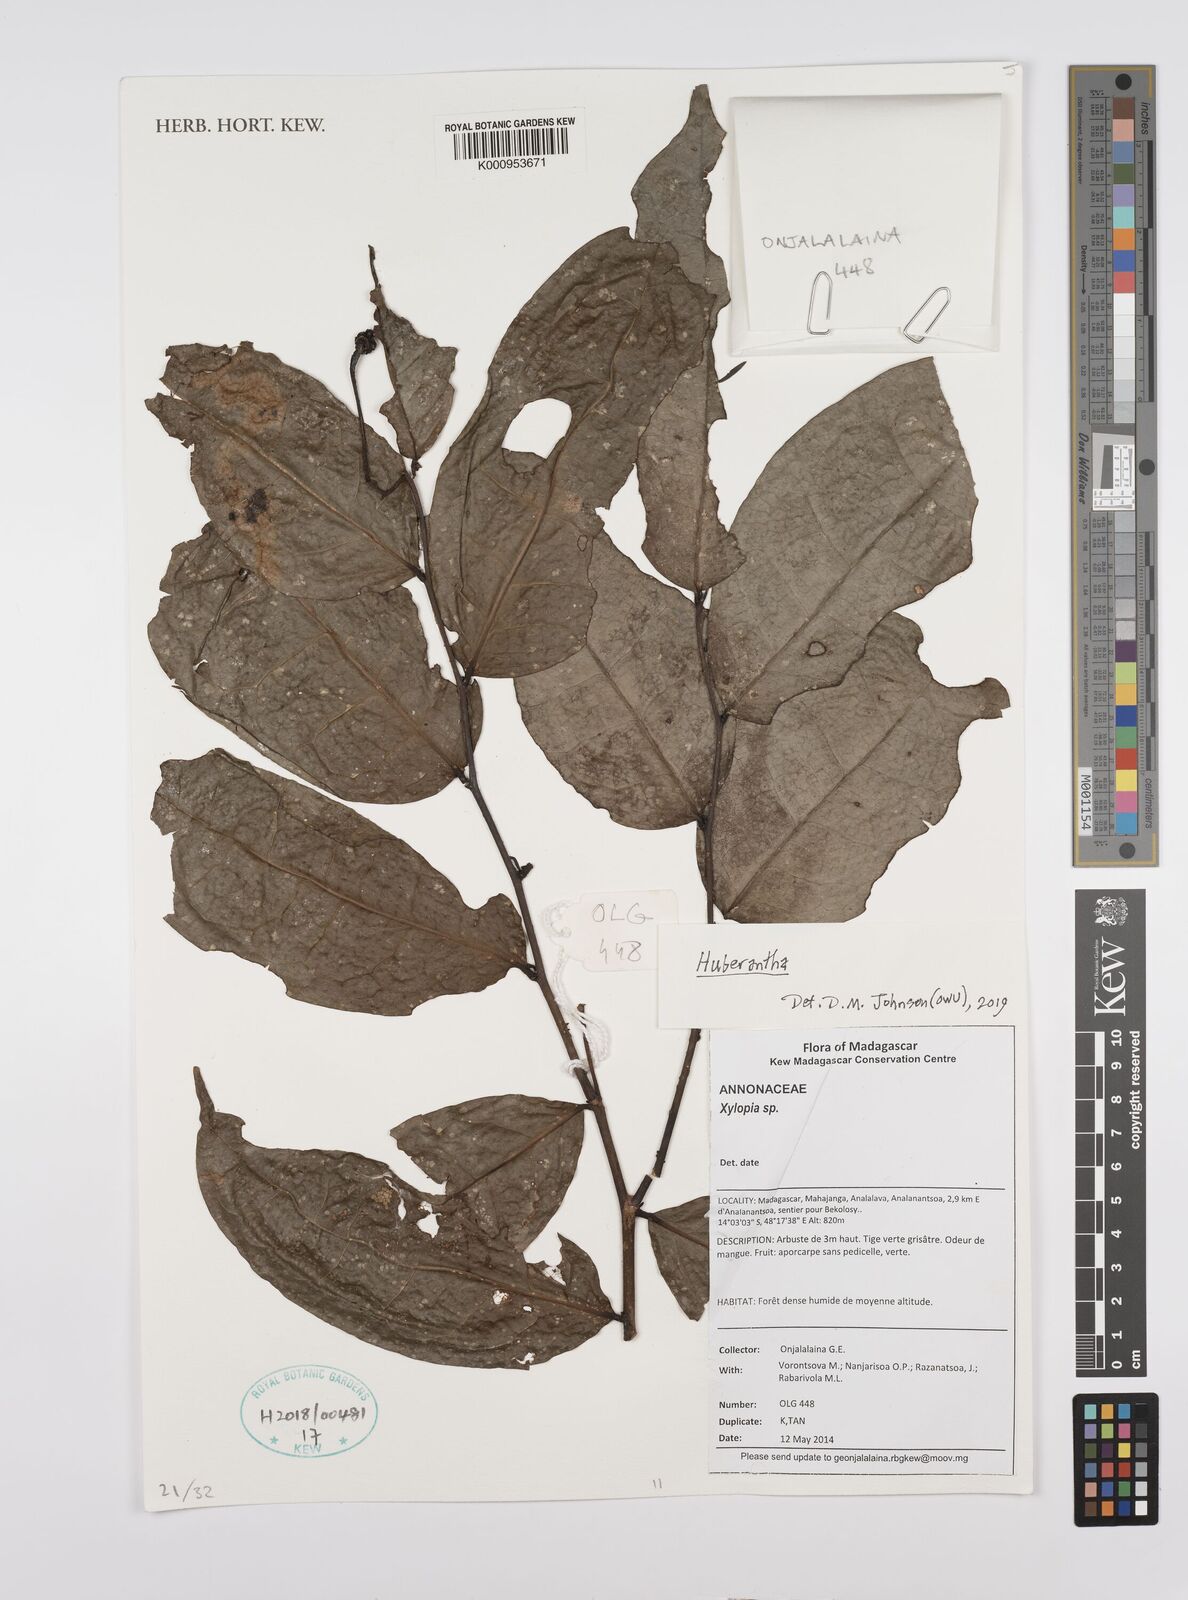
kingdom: Plantae
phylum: Tracheophyta
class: Magnoliopsida
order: Magnoliales
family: Annonaceae
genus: Xylopia
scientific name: Xylopia
